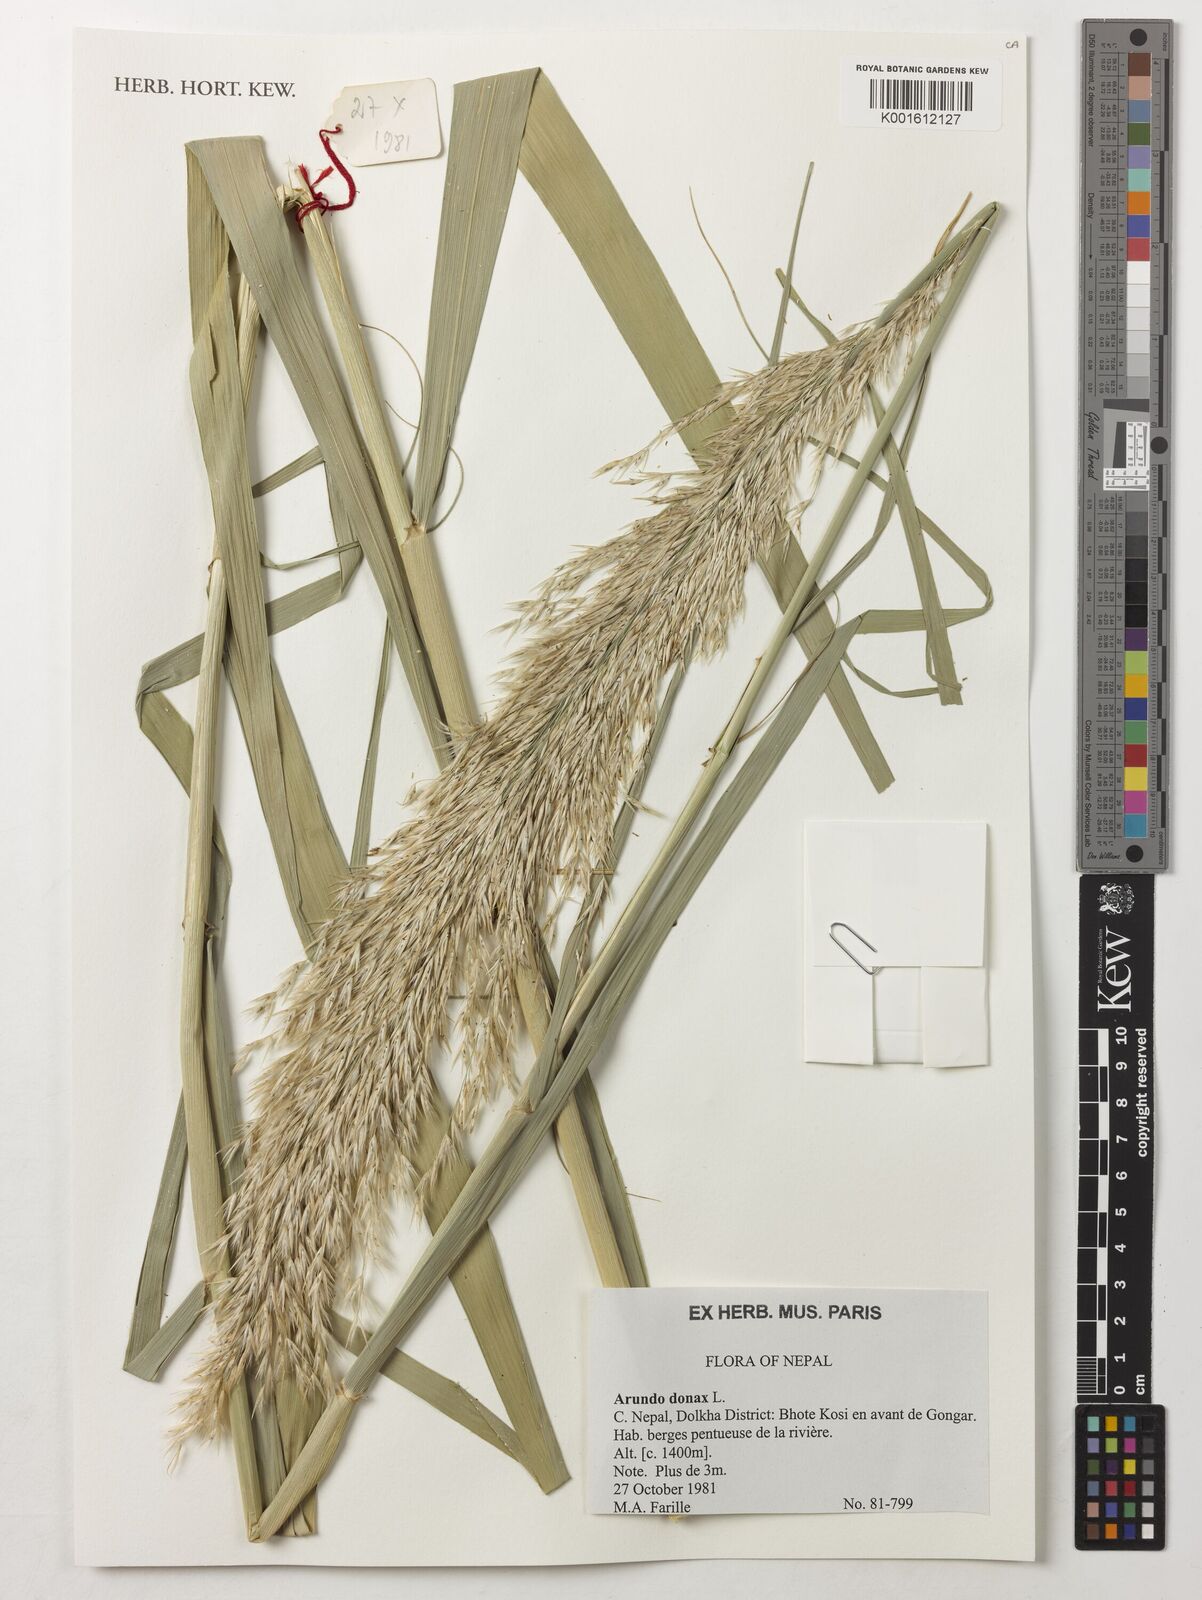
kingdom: Plantae
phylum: Tracheophyta
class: Liliopsida
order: Poales
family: Poaceae
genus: Arundo
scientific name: Arundo donax
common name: Giant reed
